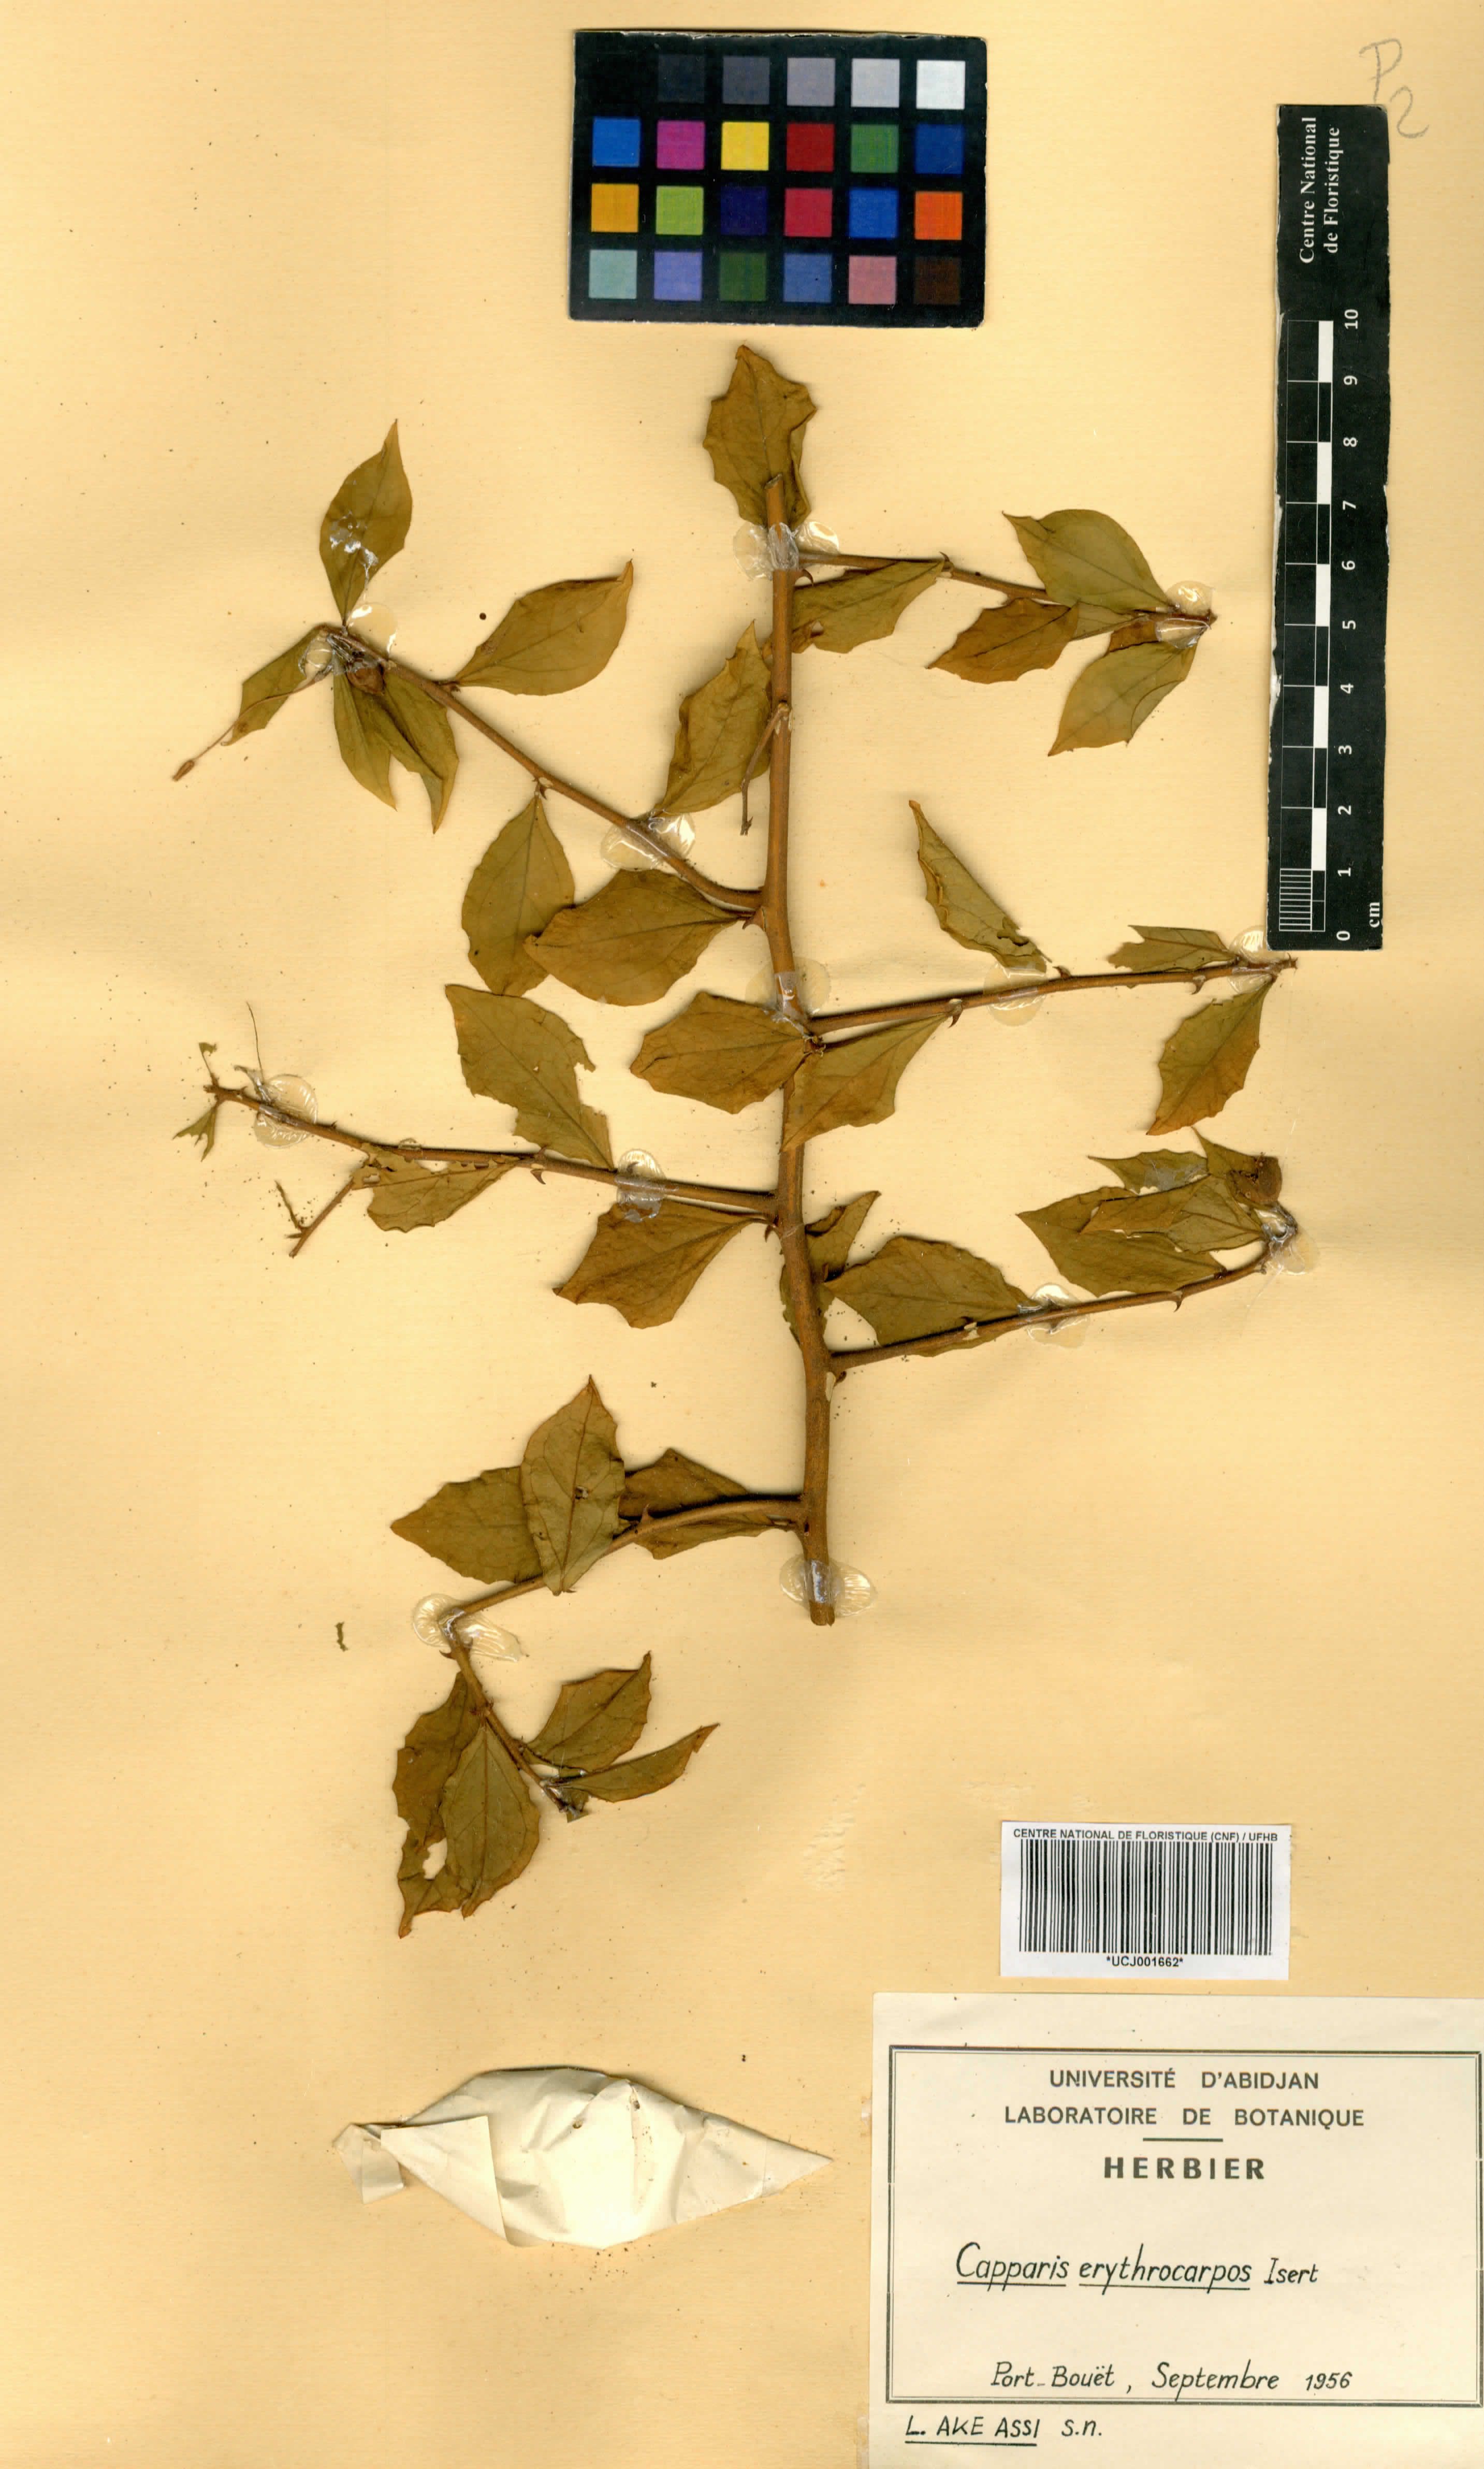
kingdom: Plantae
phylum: Tracheophyta
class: Magnoliopsida
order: Brassicales
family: Capparaceae
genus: Capparis
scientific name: Capparis erythrocarpos
